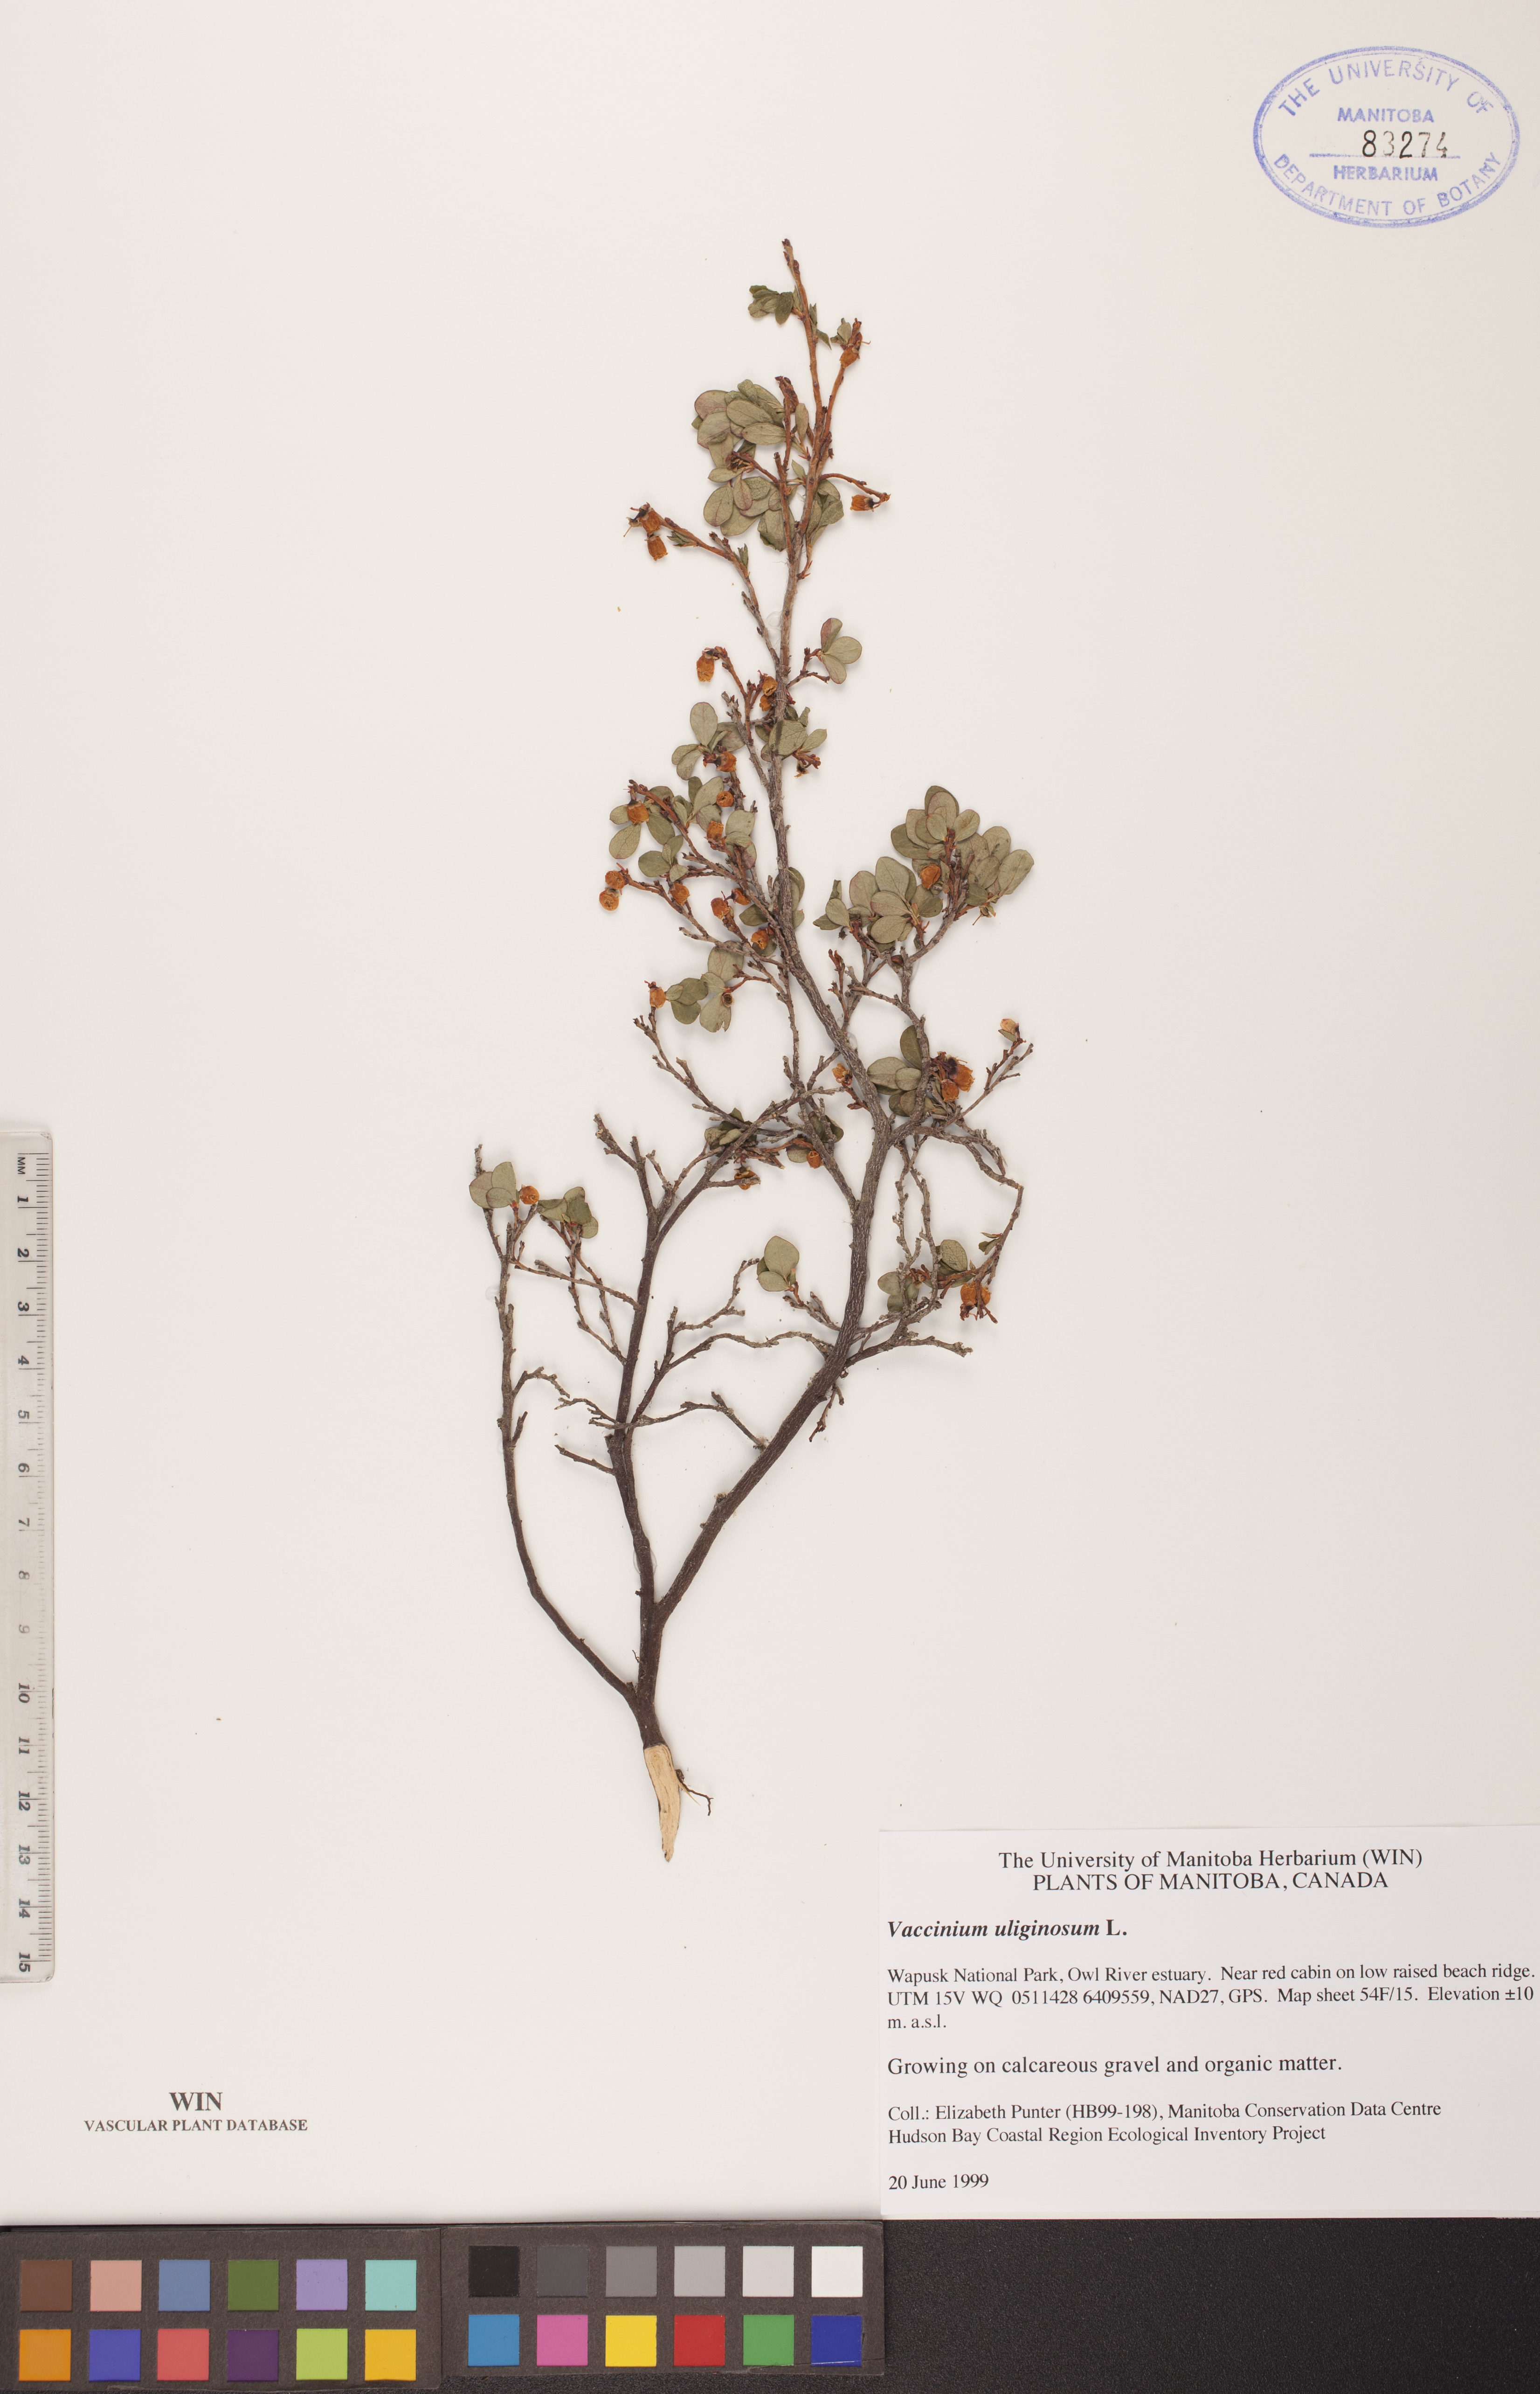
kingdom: Plantae
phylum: Tracheophyta
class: Magnoliopsida
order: Ericales
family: Ericaceae
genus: Vaccinium
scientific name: Vaccinium uliginosum
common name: Bog bilberry
